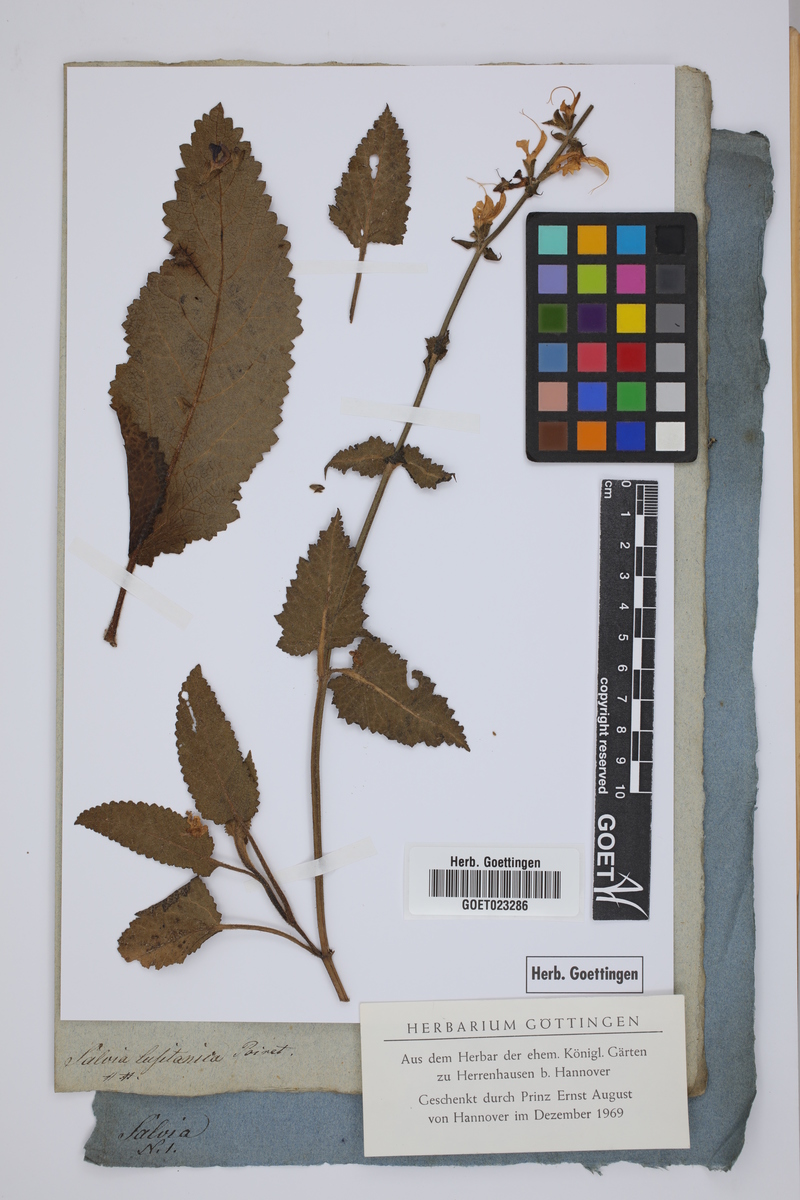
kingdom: Plantae
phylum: Tracheophyta
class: Magnoliopsida
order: Lamiales
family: Lamiaceae
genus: Salvia
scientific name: Salvia sclareoides
